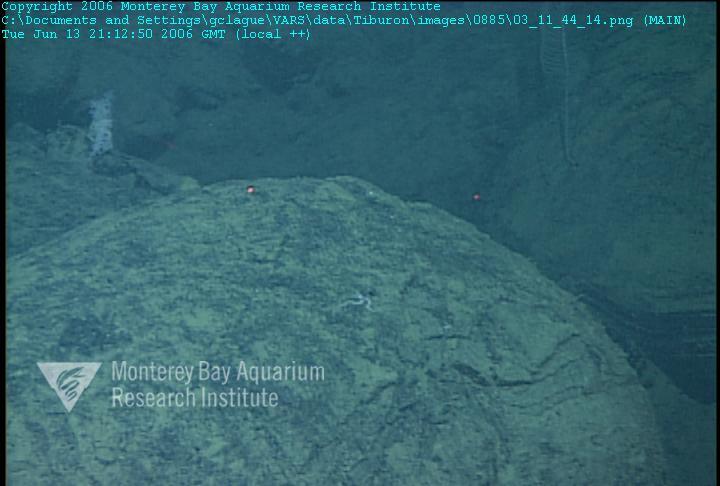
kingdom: Animalia
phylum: Porifera
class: Hexactinellida
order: Sceptrulophora
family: Farreidae
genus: Farrea
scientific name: Farrea truncata
